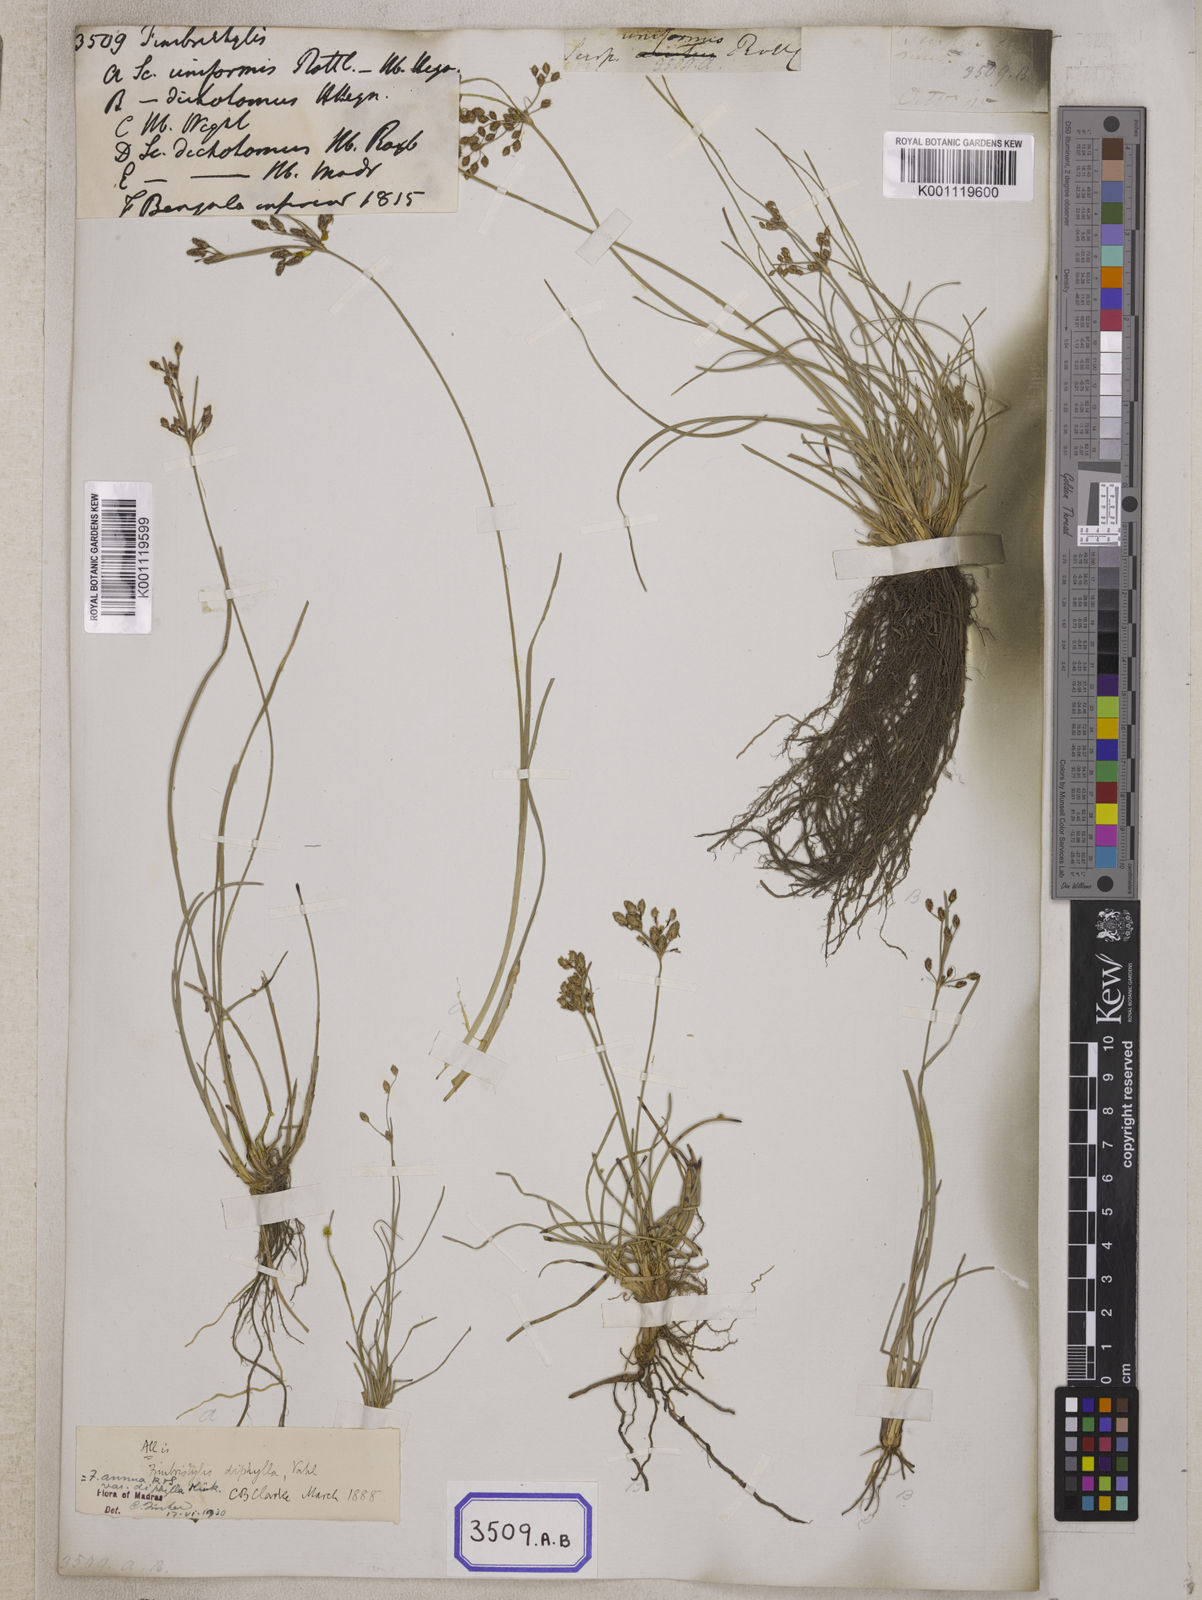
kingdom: Plantae
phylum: Tracheophyta
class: Liliopsida
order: Poales
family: Cyperaceae
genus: Fimbristylis
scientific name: Fimbristylis
